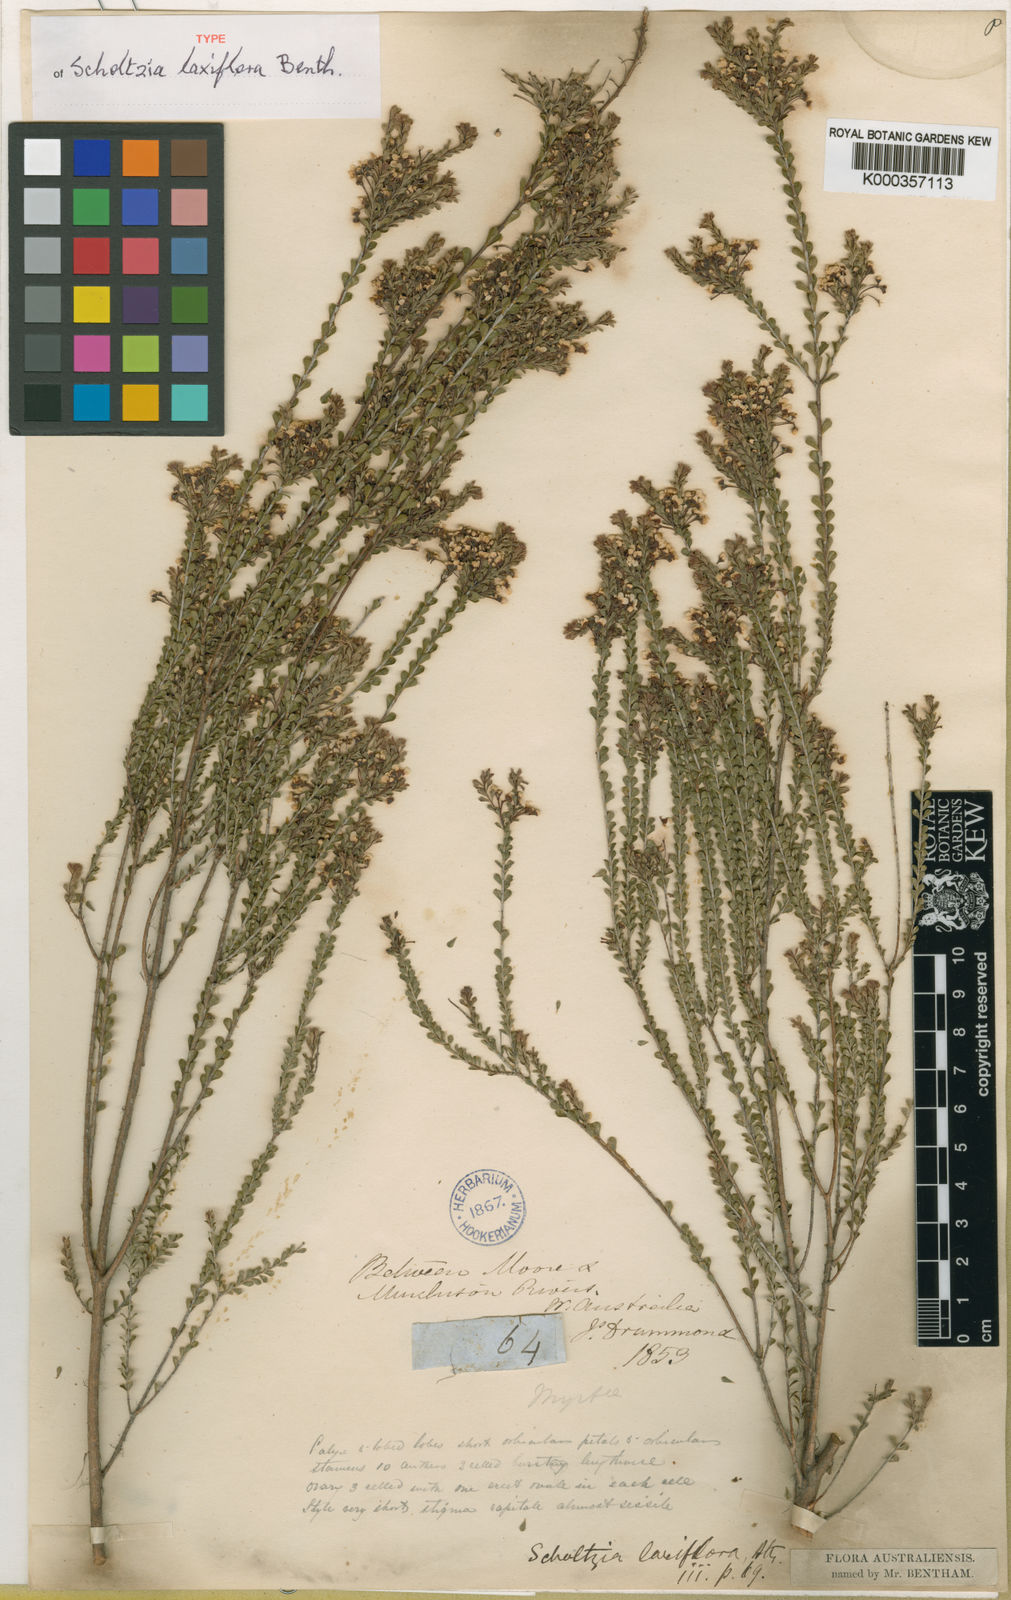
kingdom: Plantae
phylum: Tracheophyta
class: Magnoliopsida
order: Myrtales
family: Myrtaceae
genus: Scholtzia
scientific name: Scholtzia laxiflora
